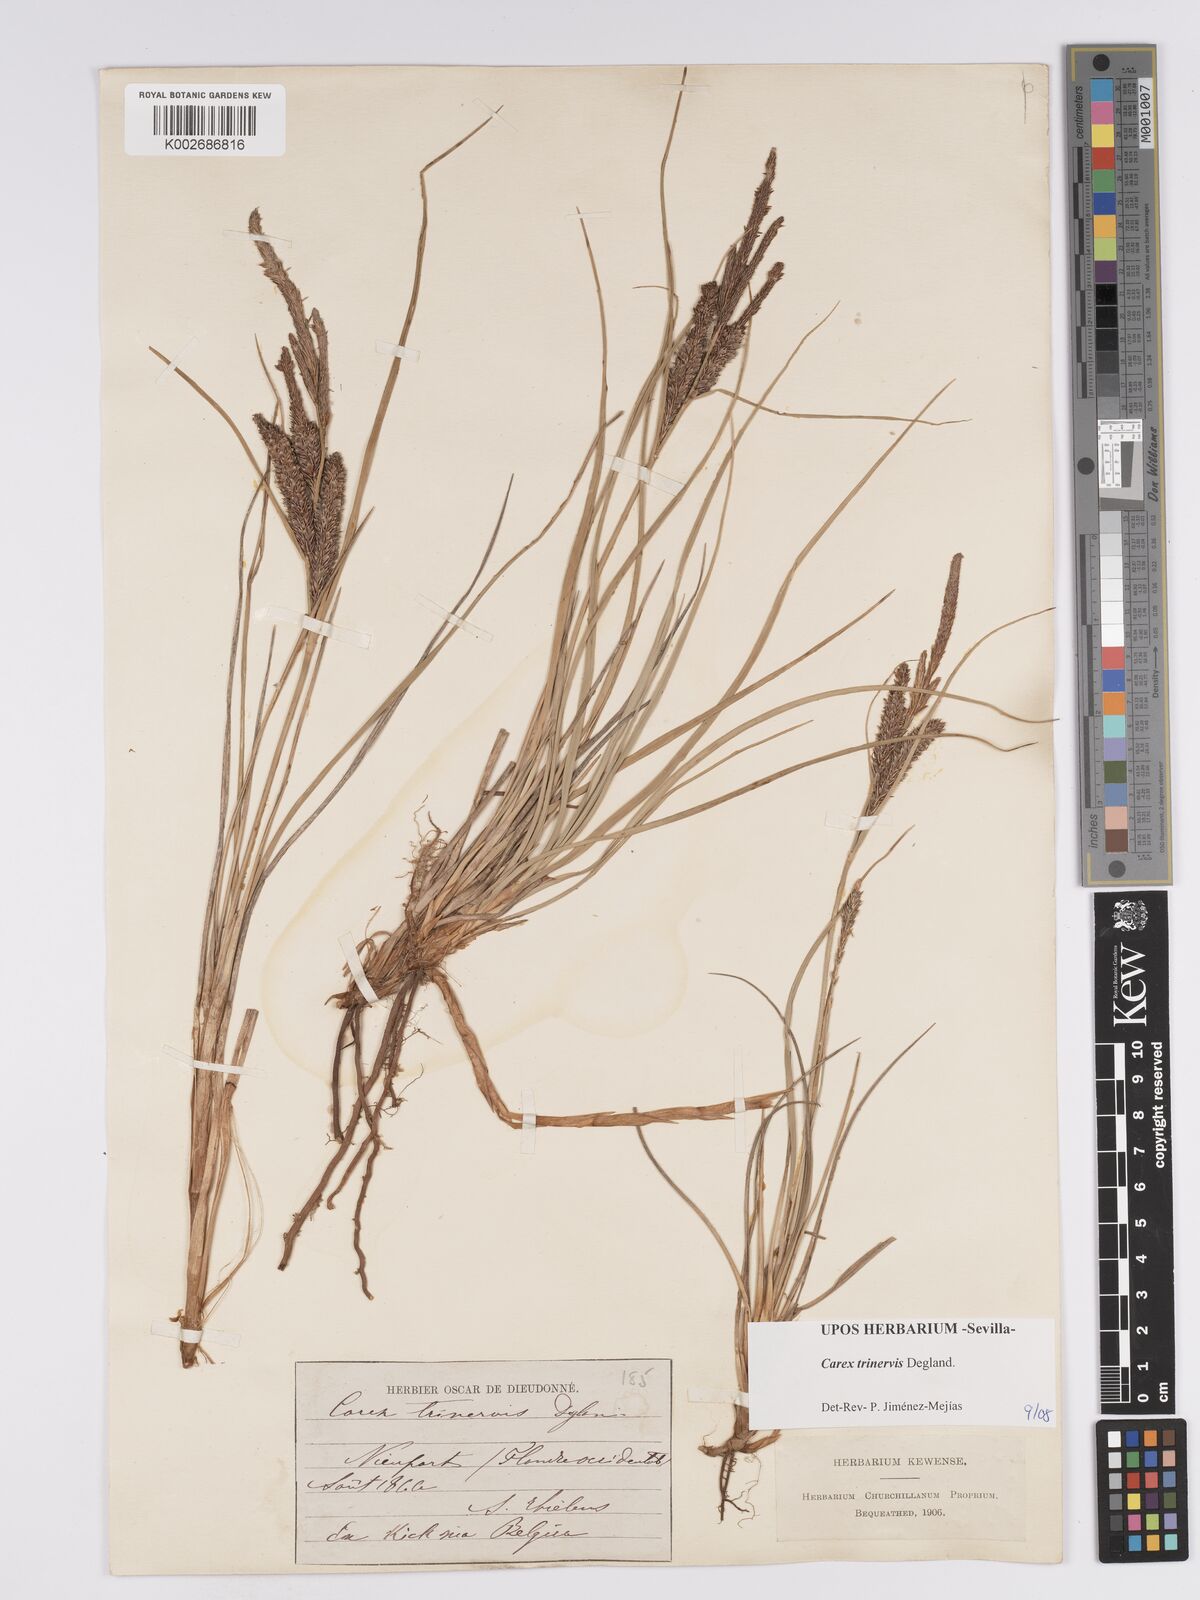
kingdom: Plantae
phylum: Tracheophyta
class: Liliopsida
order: Poales
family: Cyperaceae
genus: Carex
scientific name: Carex trinervis
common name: Three-nerved sedge
